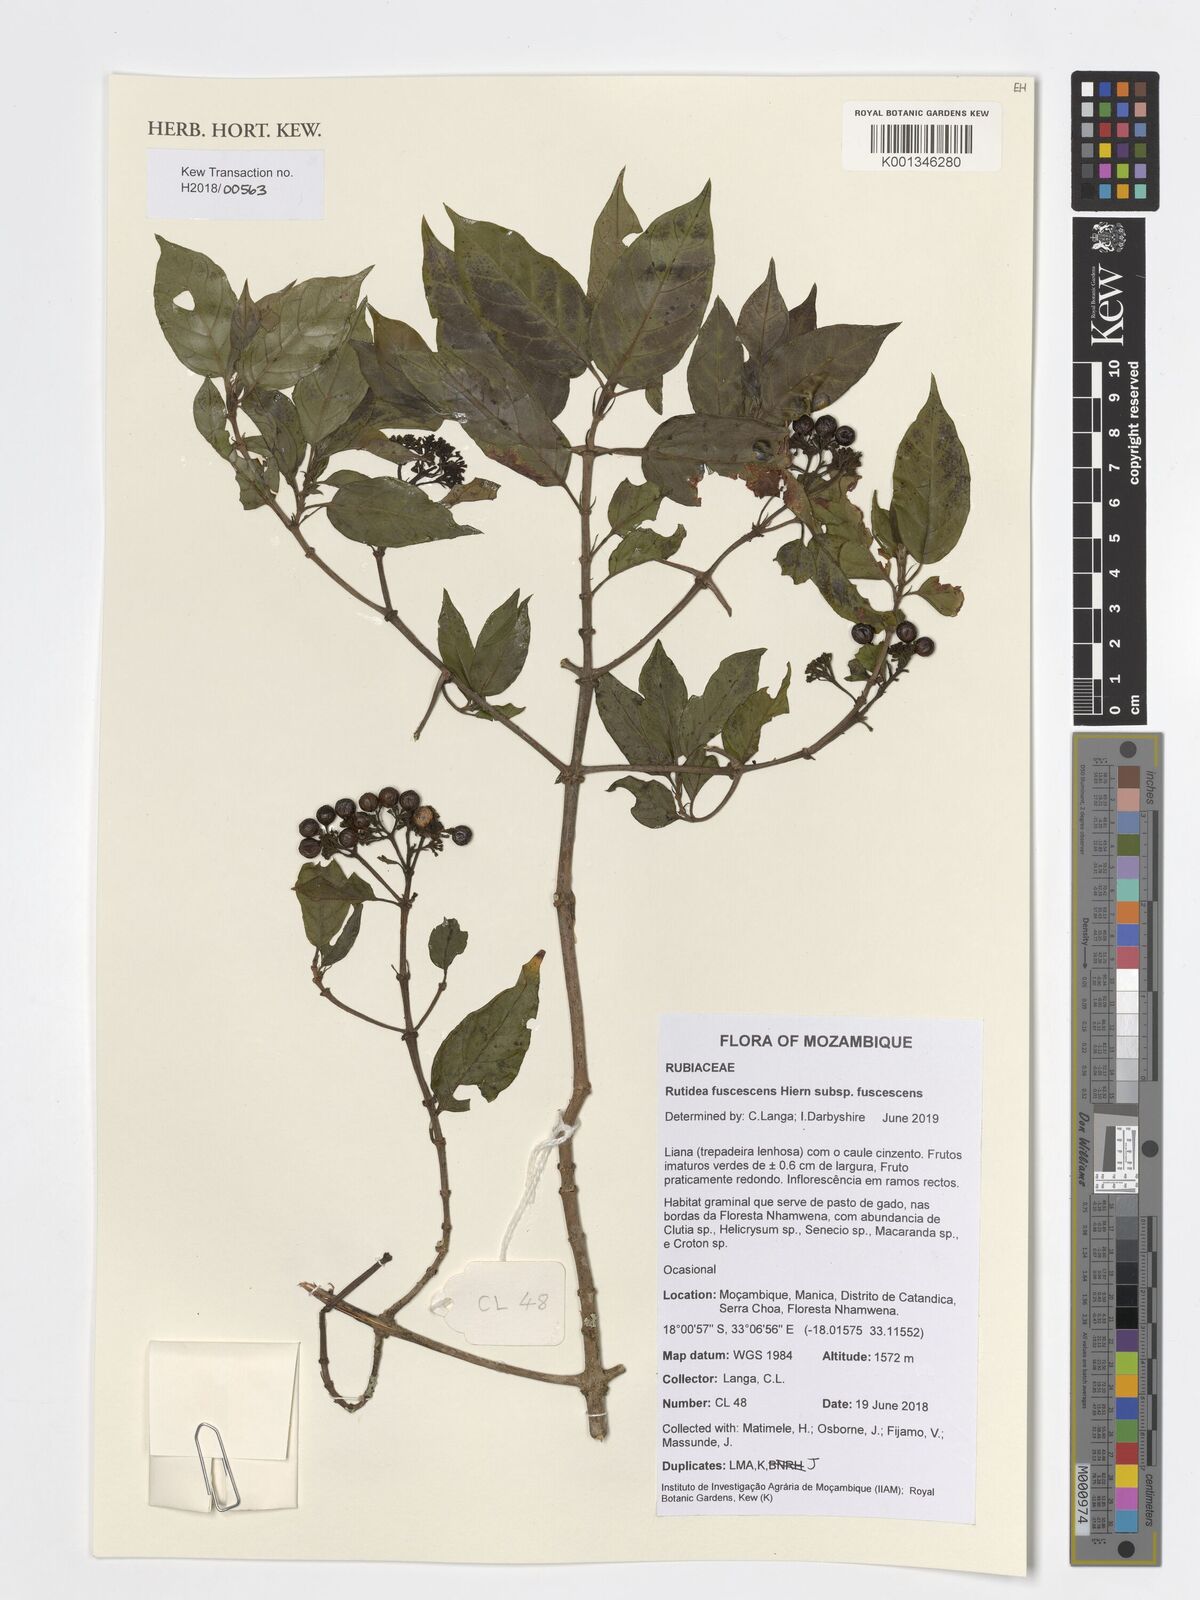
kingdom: Plantae
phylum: Tracheophyta
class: Magnoliopsida
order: Gentianales
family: Rubiaceae
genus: Rutidea
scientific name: Rutidea fuscescens
